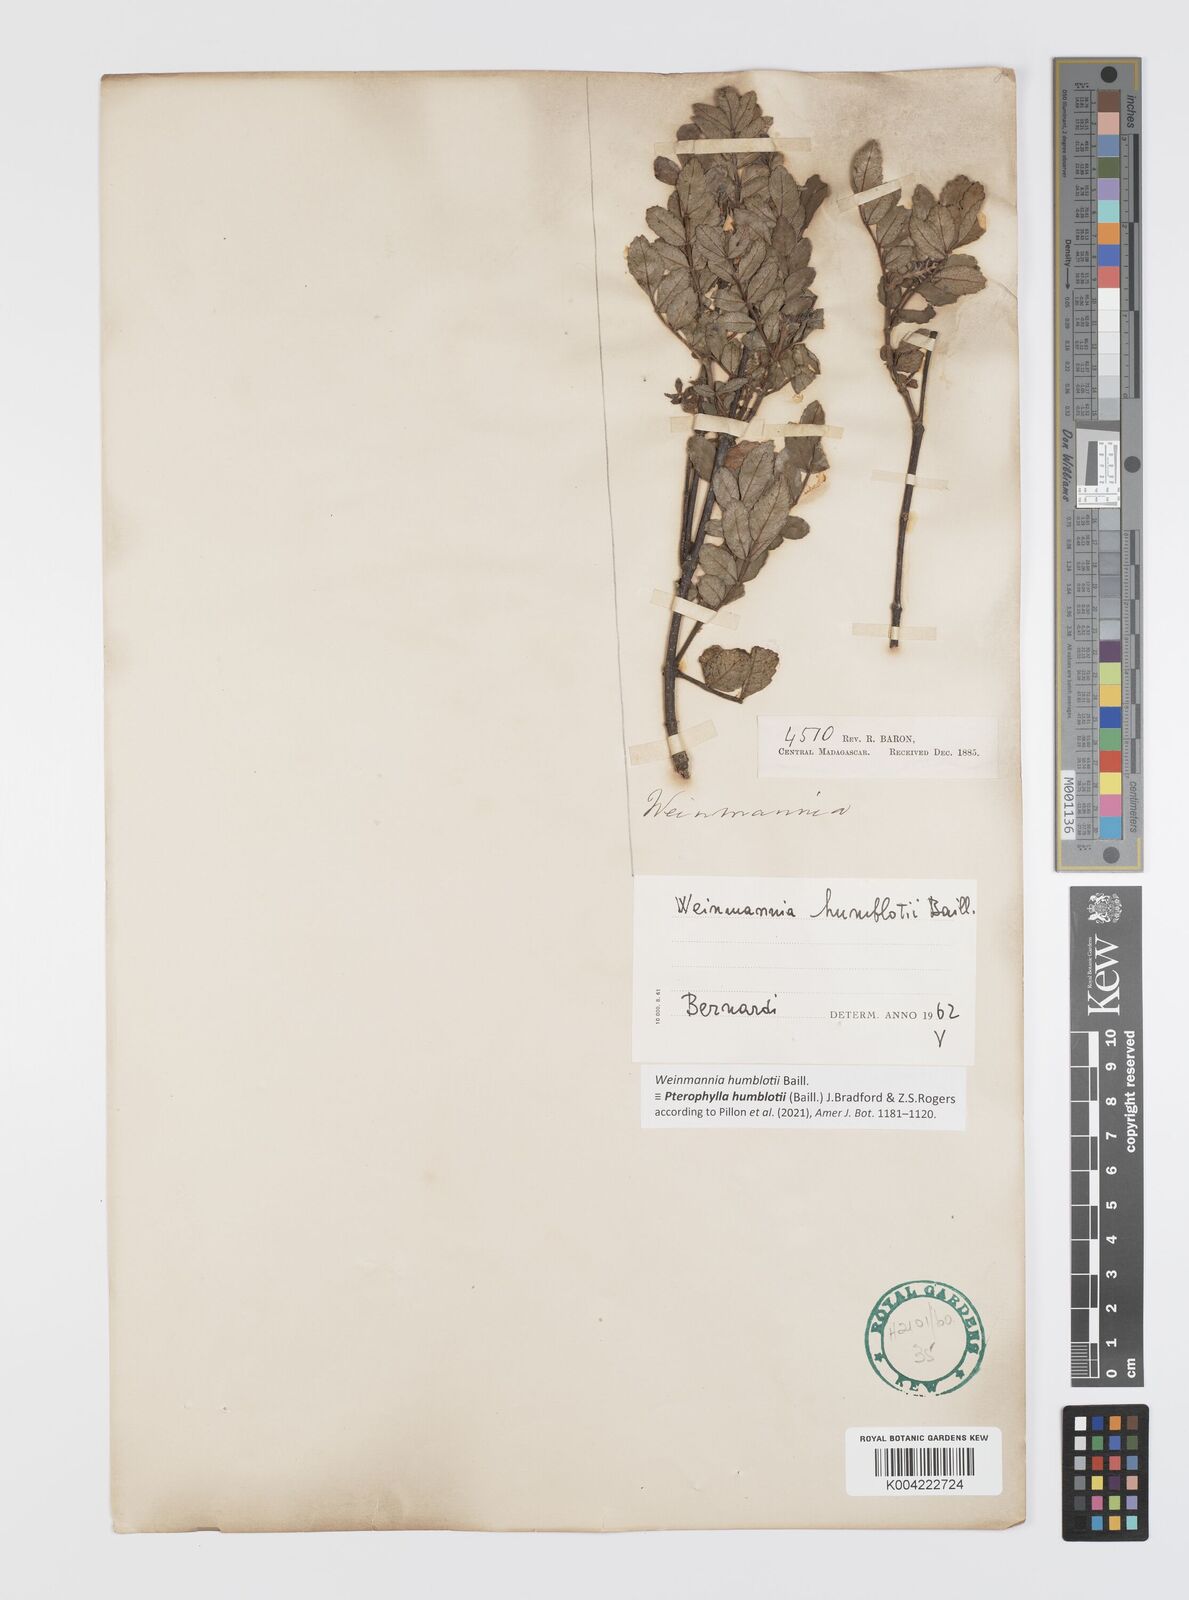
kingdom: Plantae
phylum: Tracheophyta
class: Magnoliopsida
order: Oxalidales
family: Cunoniaceae
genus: Pterophylla
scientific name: Pterophylla
